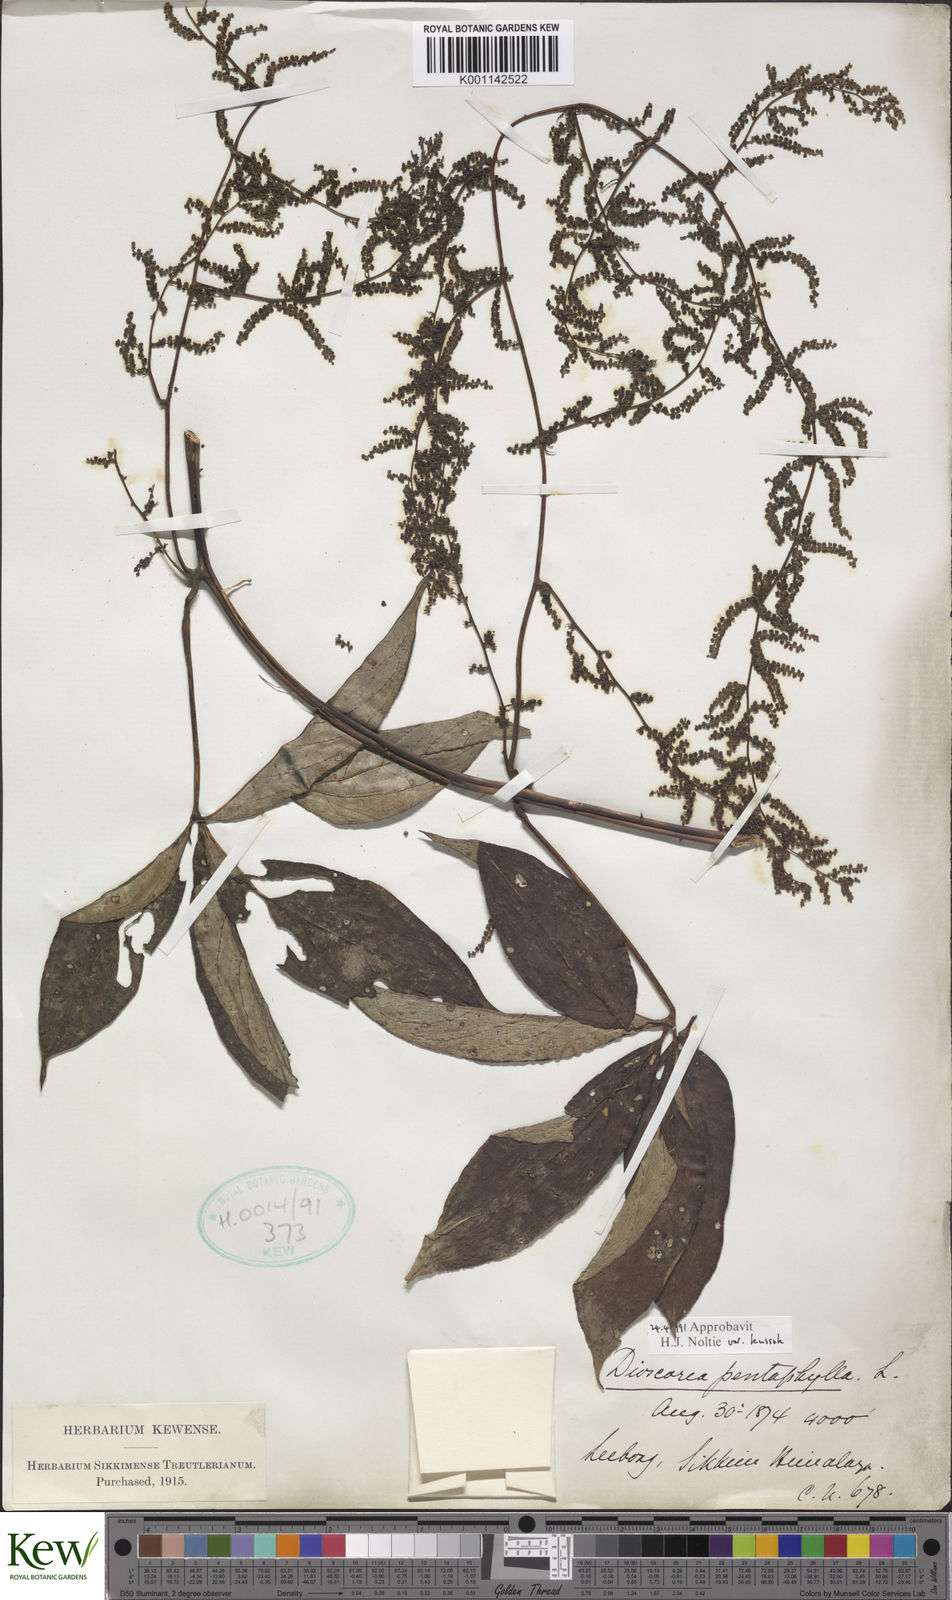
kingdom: Plantae
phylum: Tracheophyta
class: Liliopsida
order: Dioscoreales
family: Dioscoreaceae
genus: Dioscorea
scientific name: Dioscorea pentaphylla
